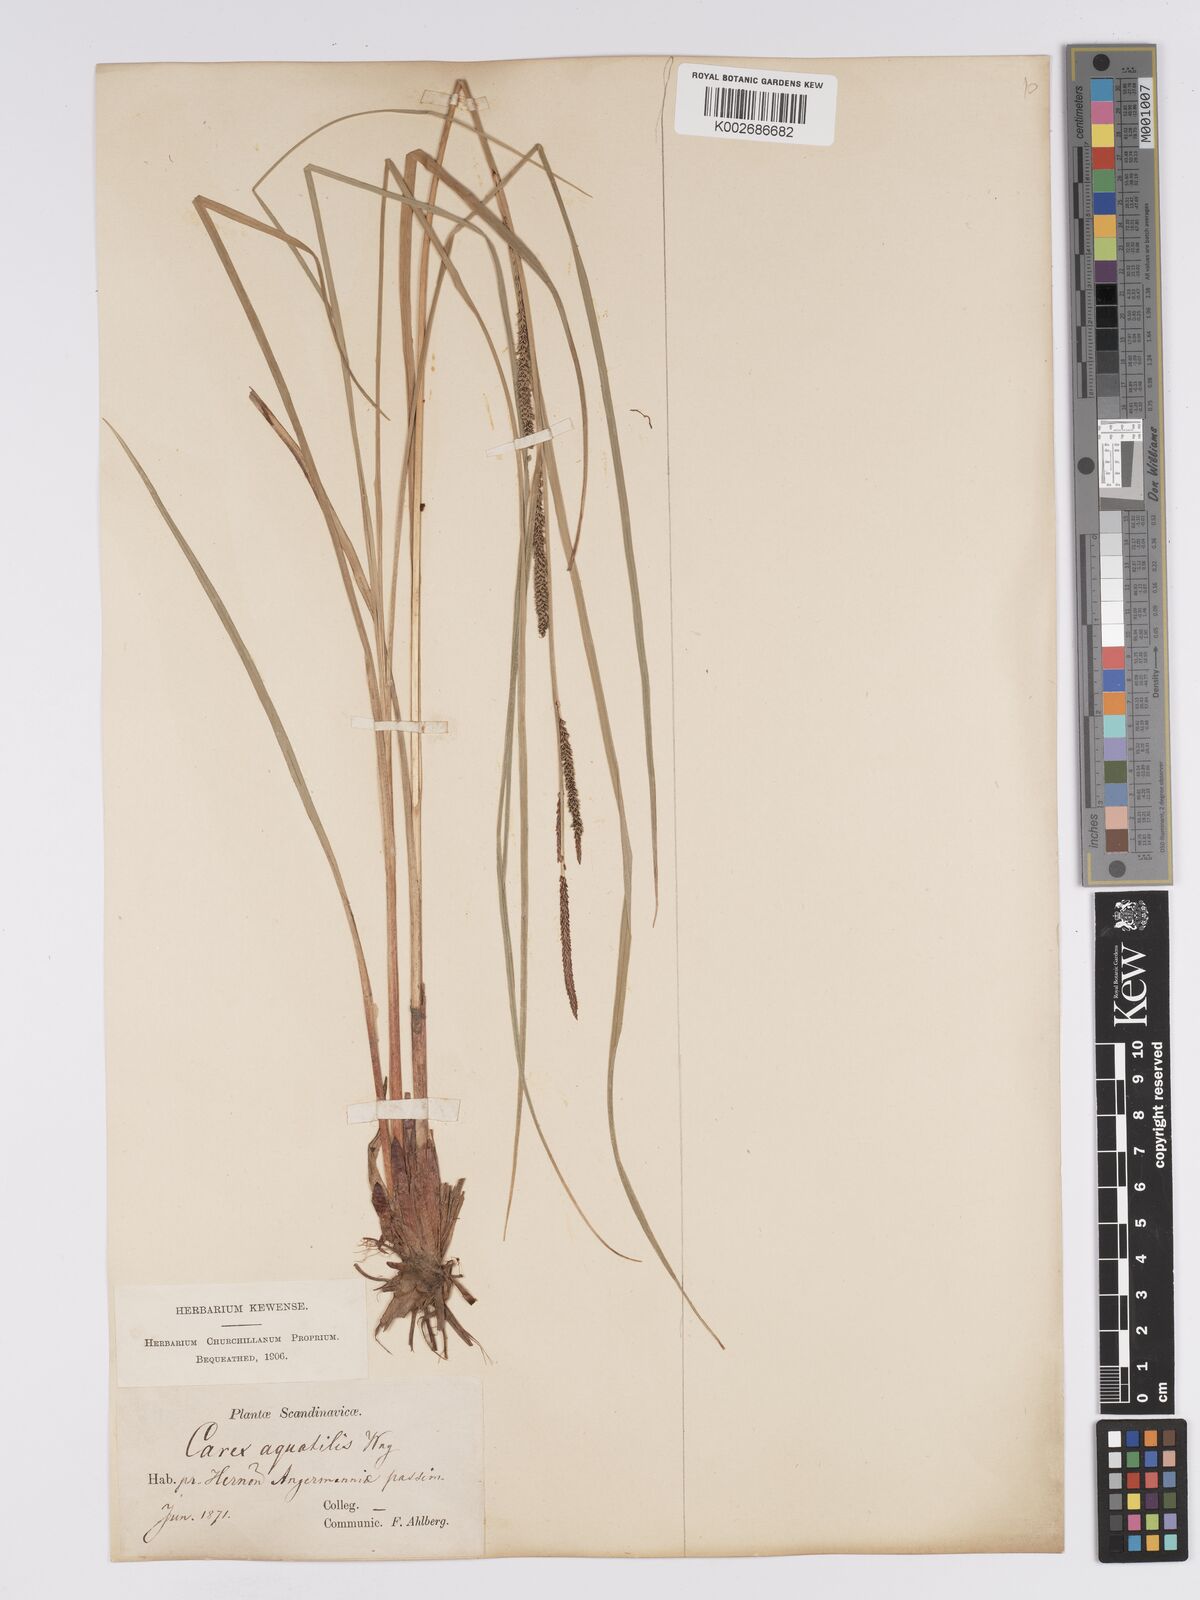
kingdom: Plantae
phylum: Tracheophyta
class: Liliopsida
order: Poales
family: Cyperaceae
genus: Carex
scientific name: Carex aquatilis
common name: Water sedge
